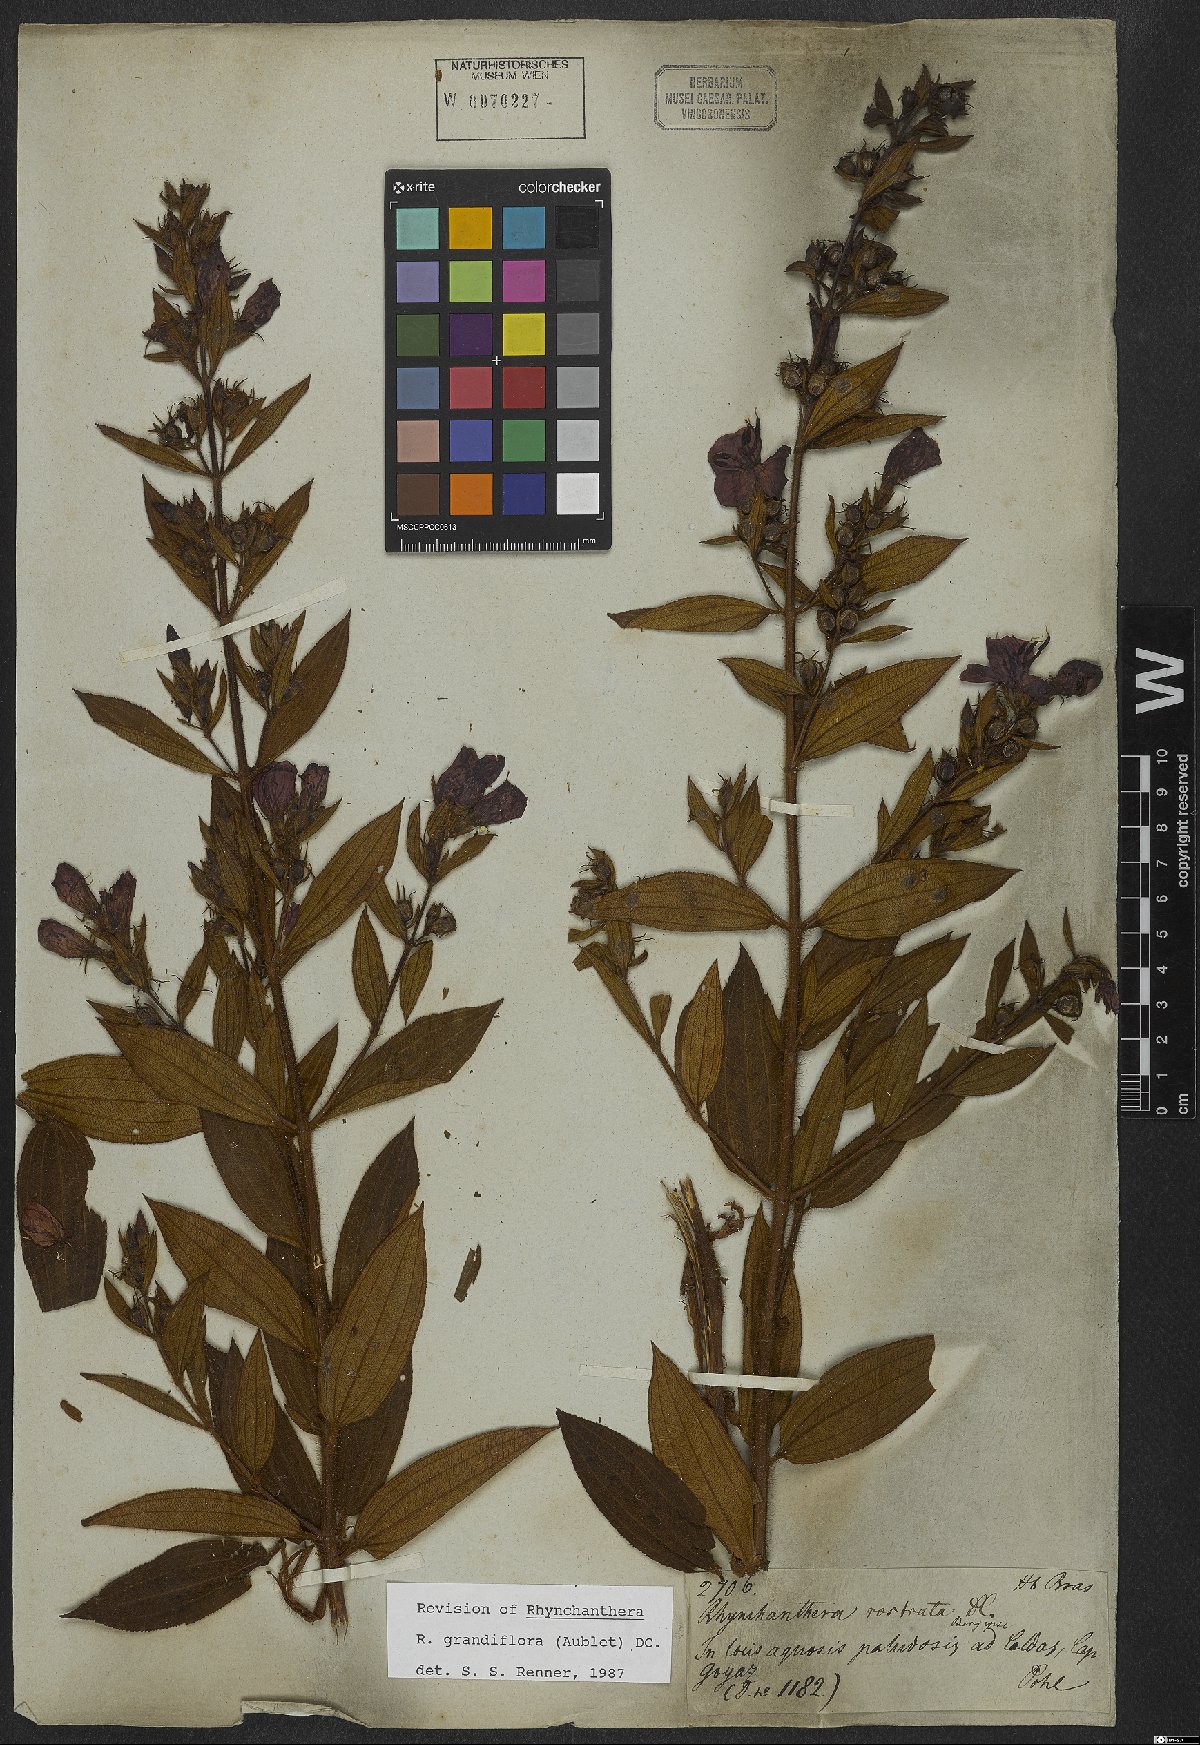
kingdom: Plantae
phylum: Tracheophyta
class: Magnoliopsida
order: Myrtales
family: Melastomataceae
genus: Rhynchanthera
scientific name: Rhynchanthera grandiflora
